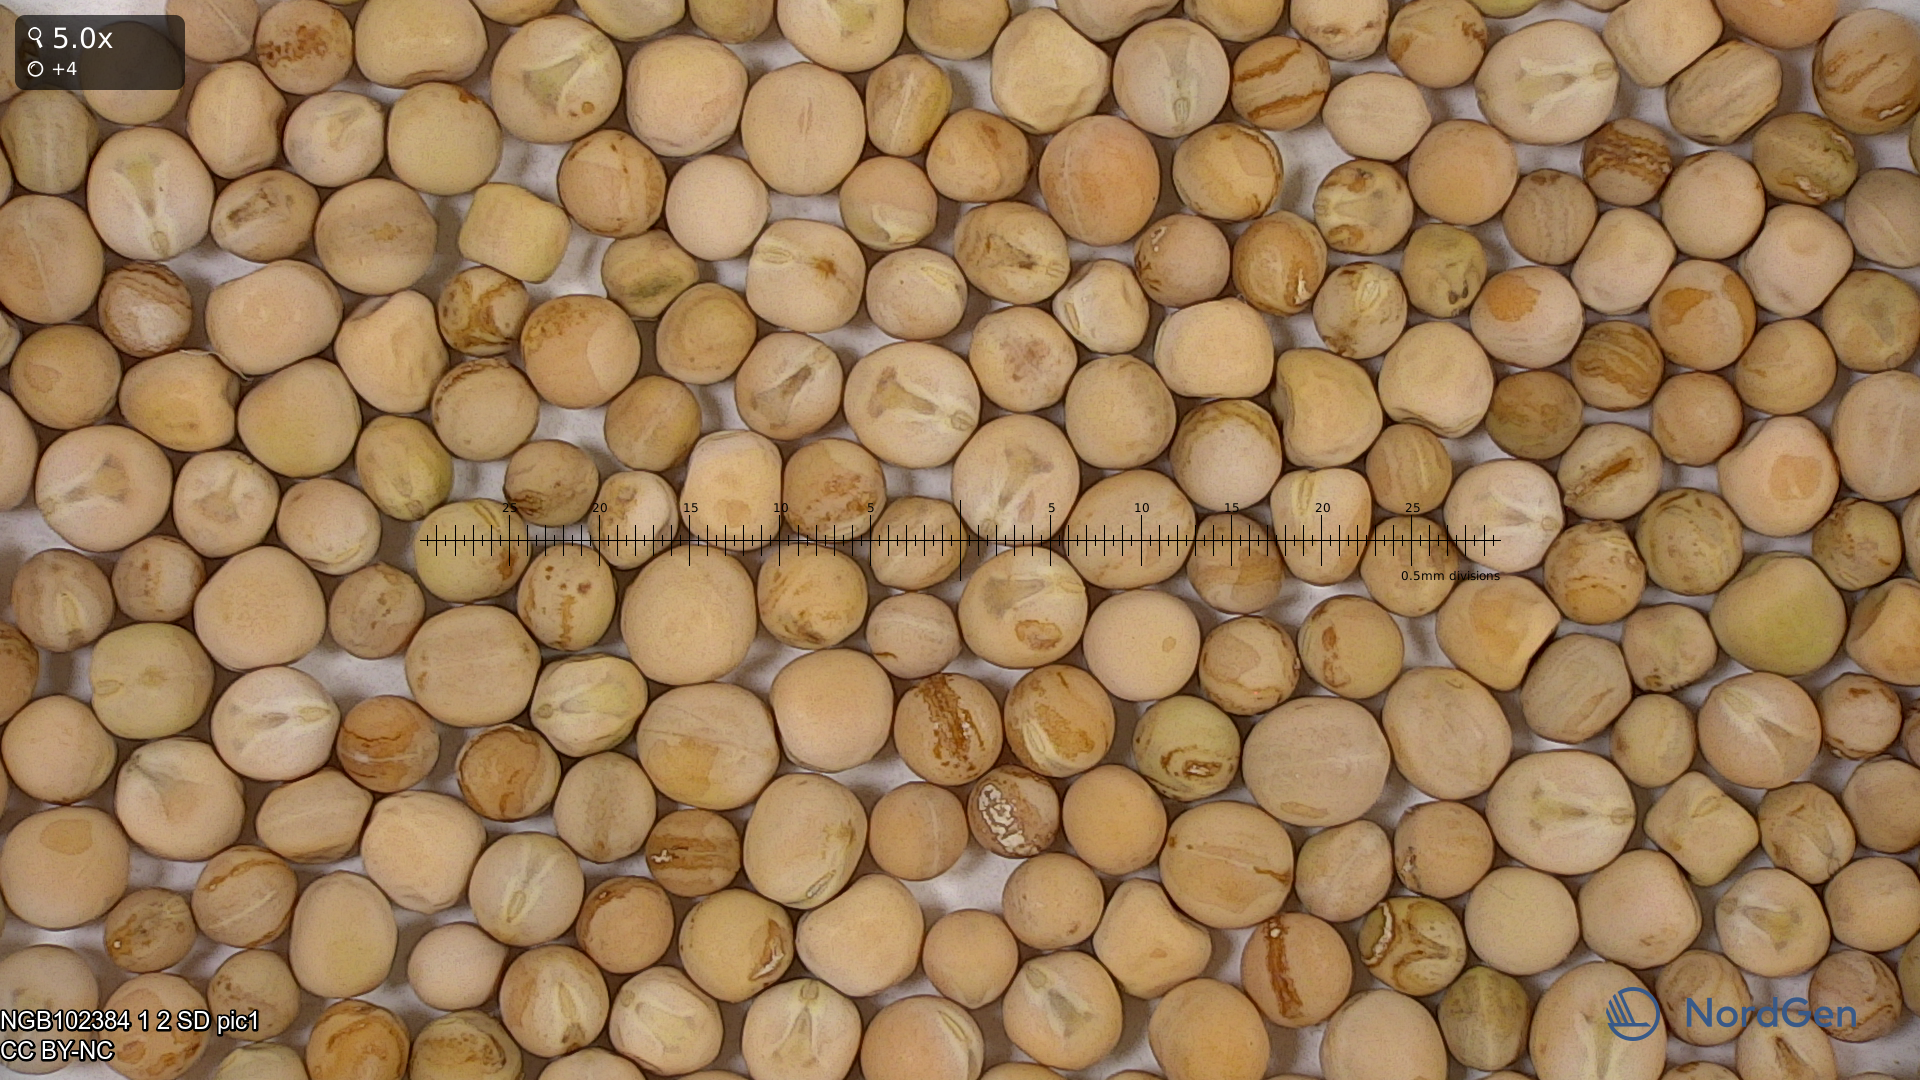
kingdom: Plantae
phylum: Tracheophyta
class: Magnoliopsida
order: Fabales
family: Fabaceae
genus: Lathyrus
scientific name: Lathyrus oleraceus
